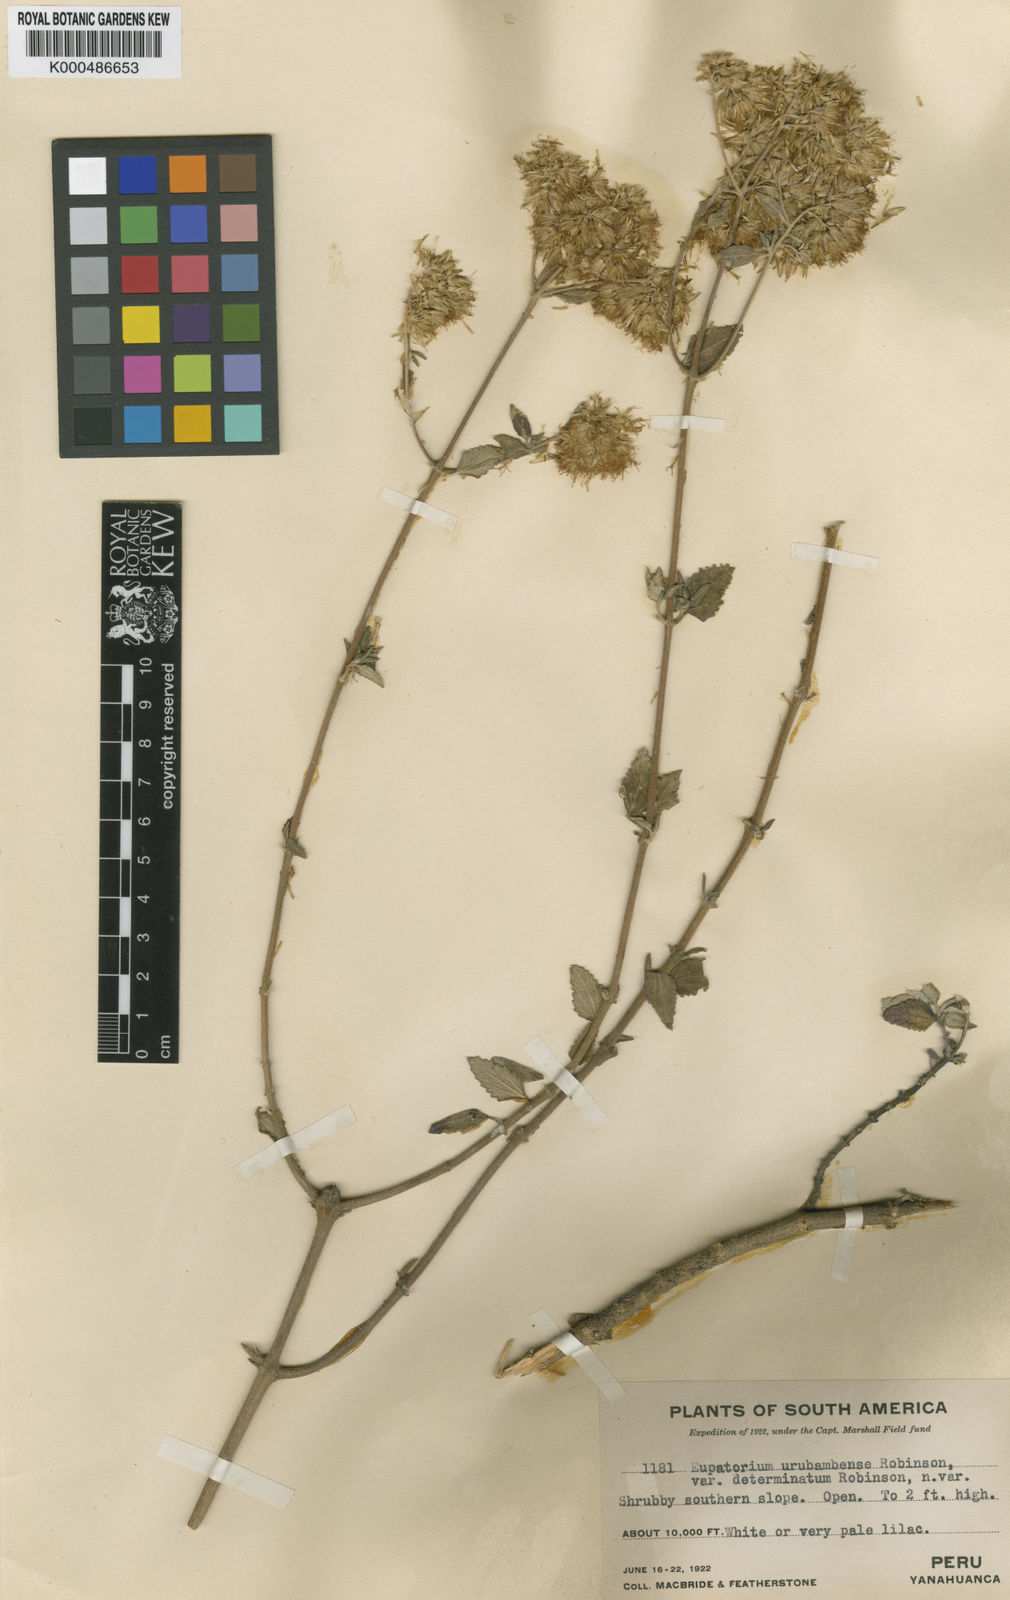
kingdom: Plantae
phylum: Tracheophyta
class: Magnoliopsida
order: Asterales
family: Asteraceae
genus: Cronquistianthus
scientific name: Cronquistianthus urubambensis
